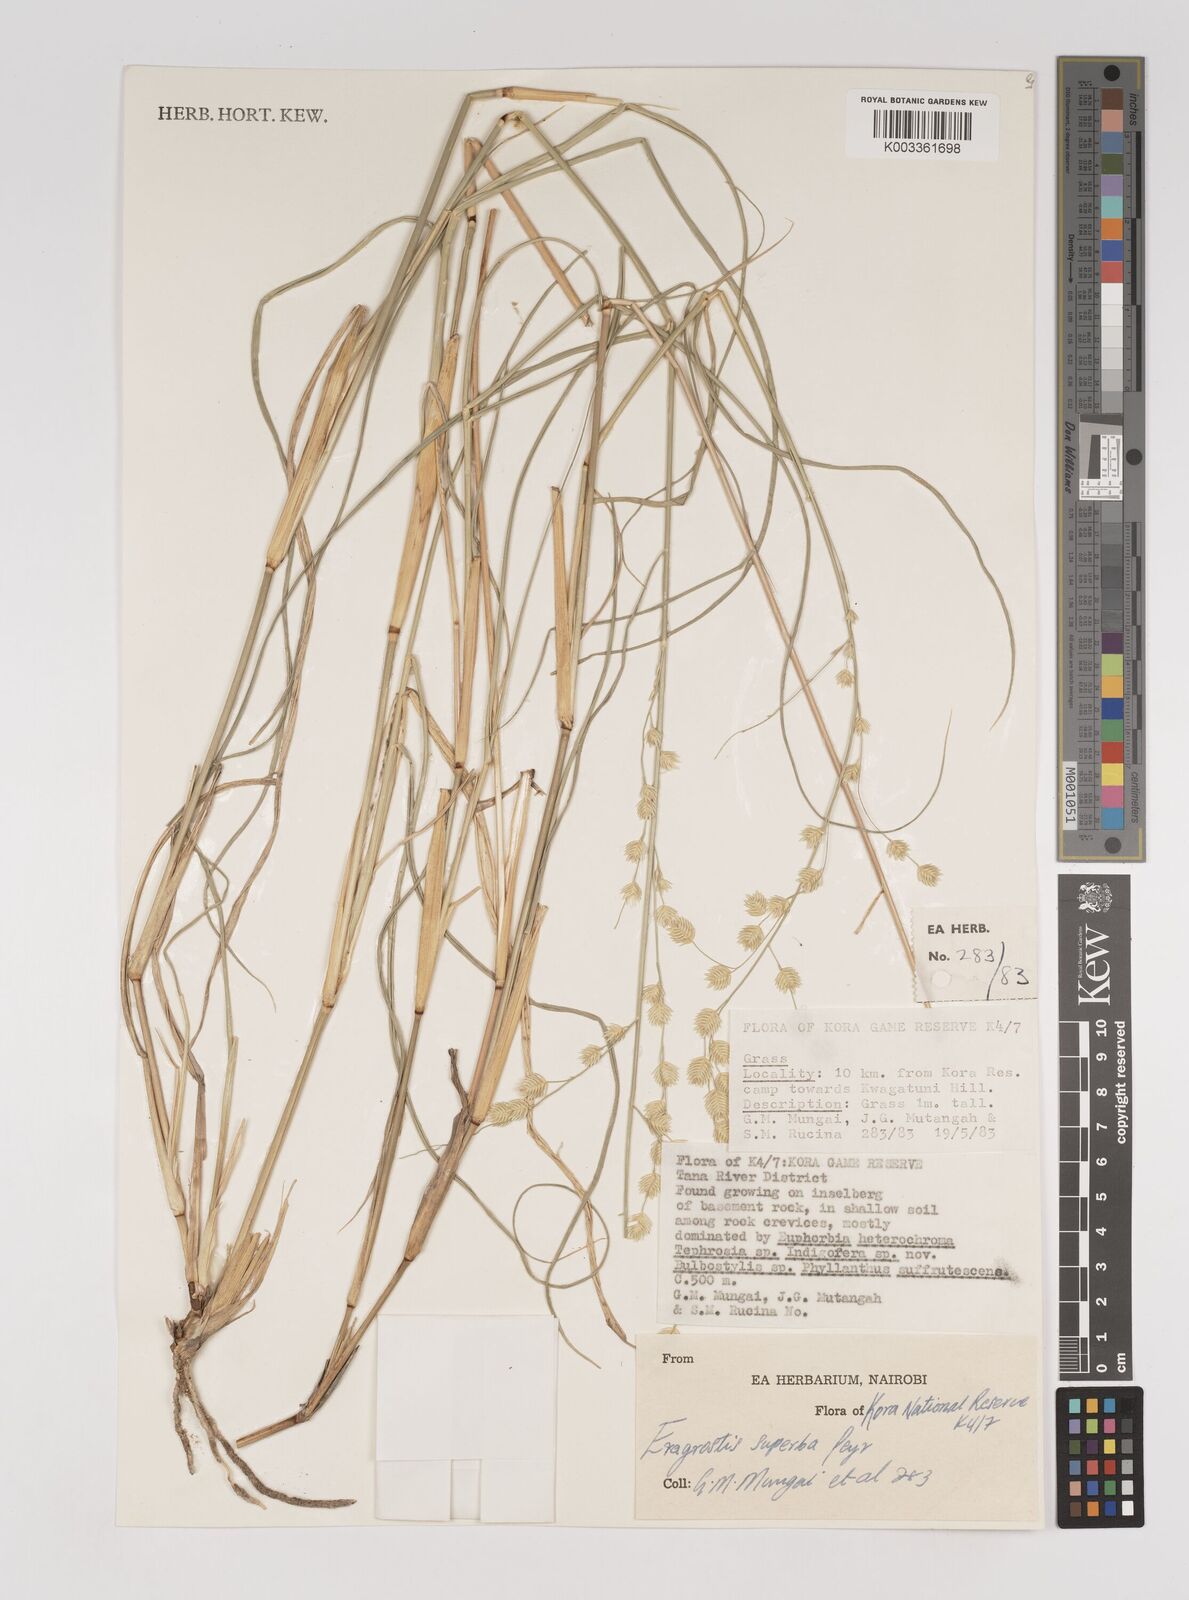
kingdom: Plantae
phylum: Tracheophyta
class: Liliopsida
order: Poales
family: Poaceae
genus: Eragrostis
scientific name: Eragrostis superba
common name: Wilman lovegrass
